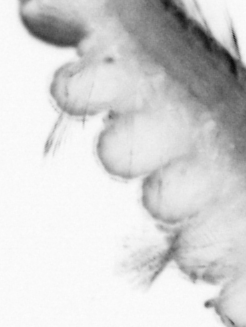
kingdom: Animalia
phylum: Arthropoda
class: Copepoda
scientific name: Copepoda
